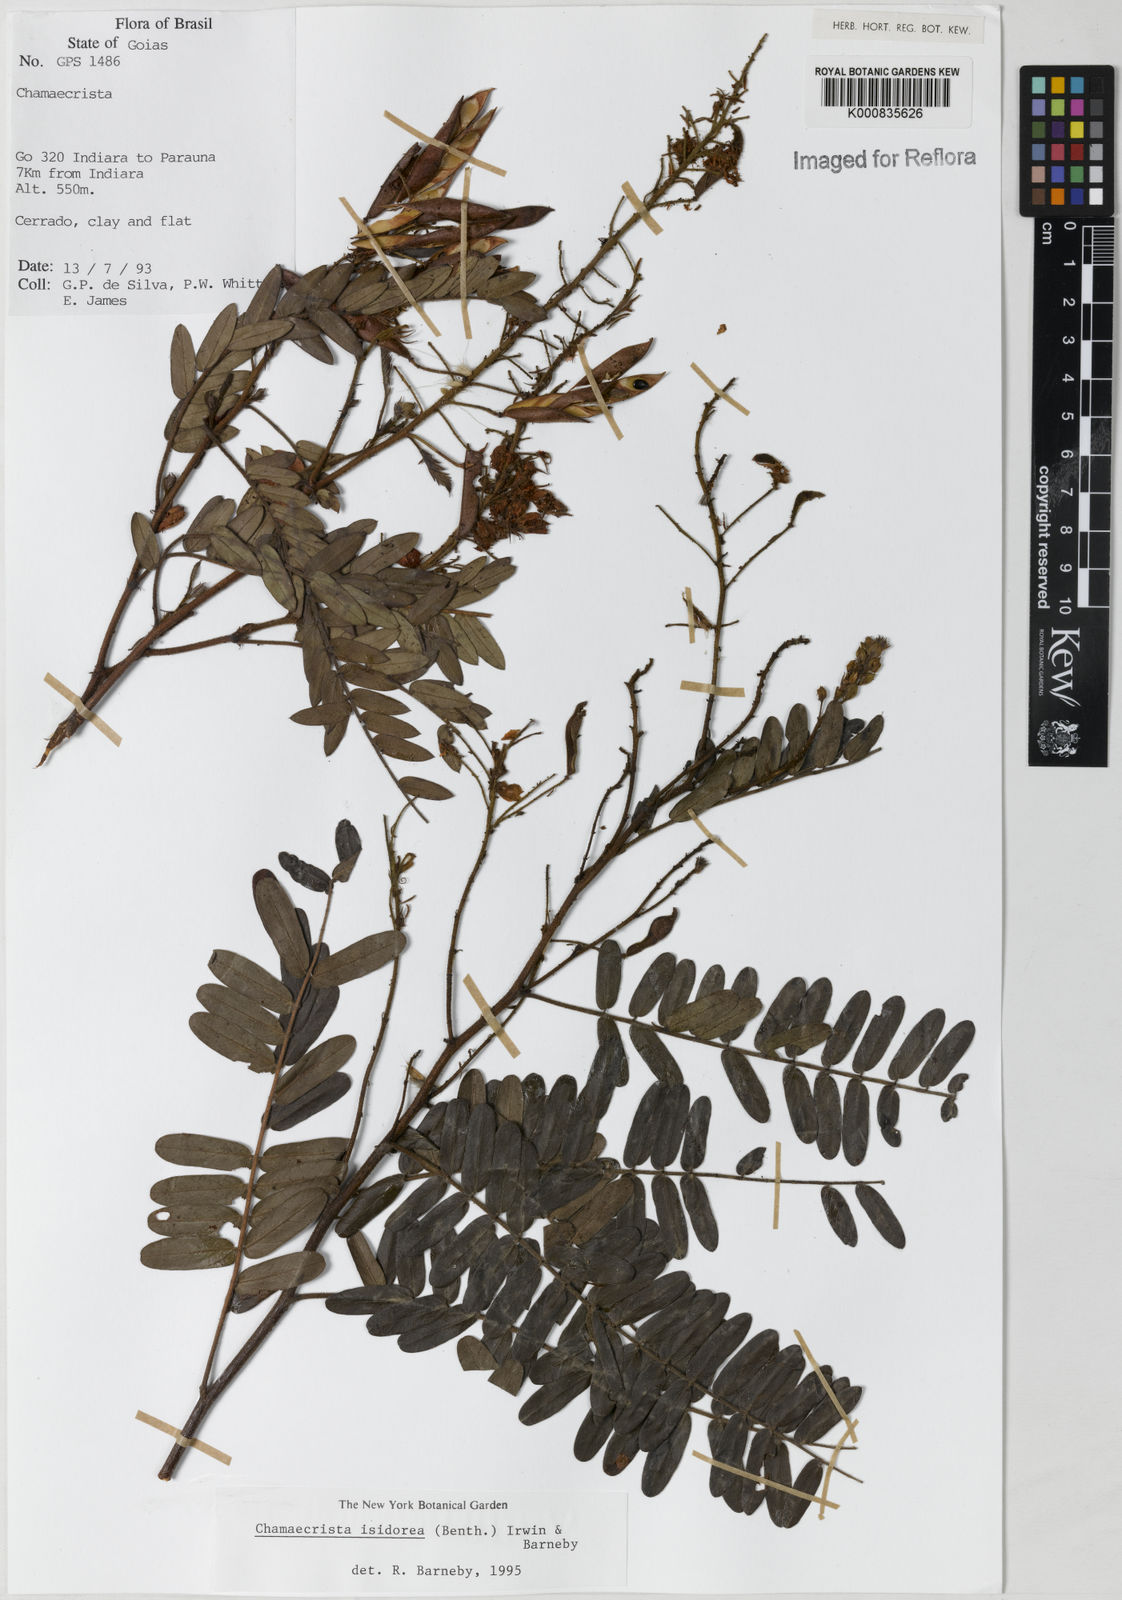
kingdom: Plantae
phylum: Tracheophyta
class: Magnoliopsida
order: Fabales
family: Fabaceae
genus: Chamaecrista
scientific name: Chamaecrista isidorea
